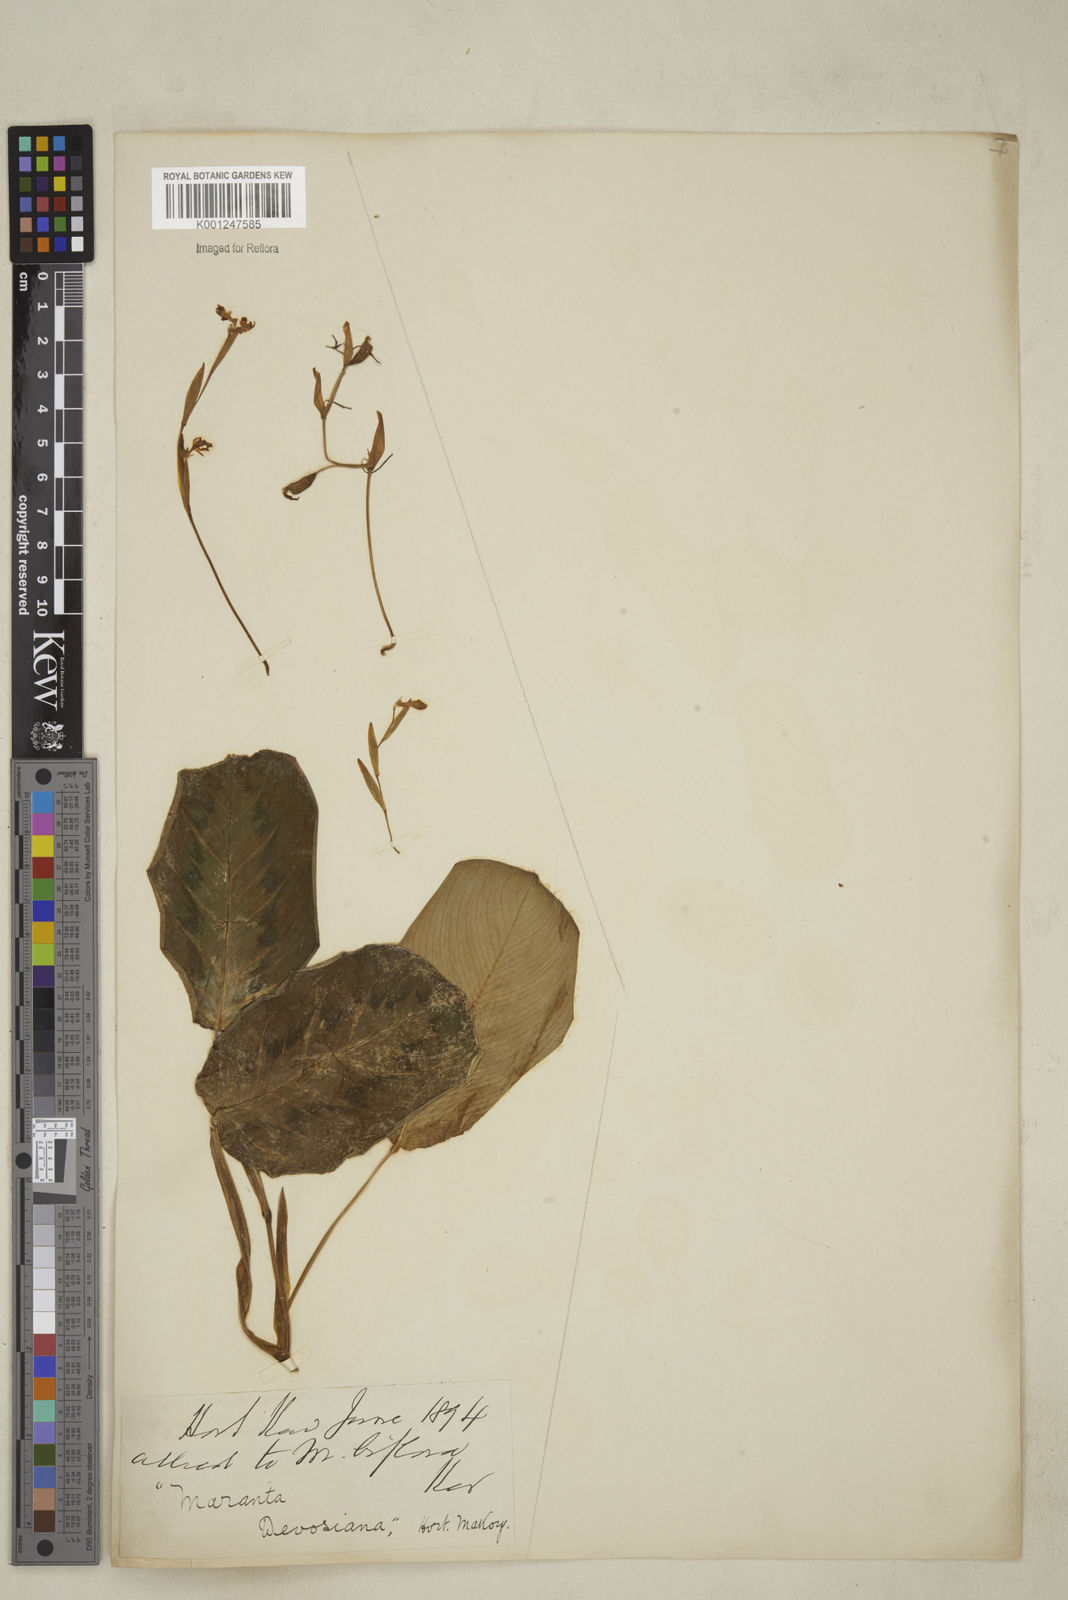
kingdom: Plantae
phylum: Tracheophyta
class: Liliopsida
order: Zingiberales
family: Marantaceae
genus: Maranta
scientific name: Maranta cristata
